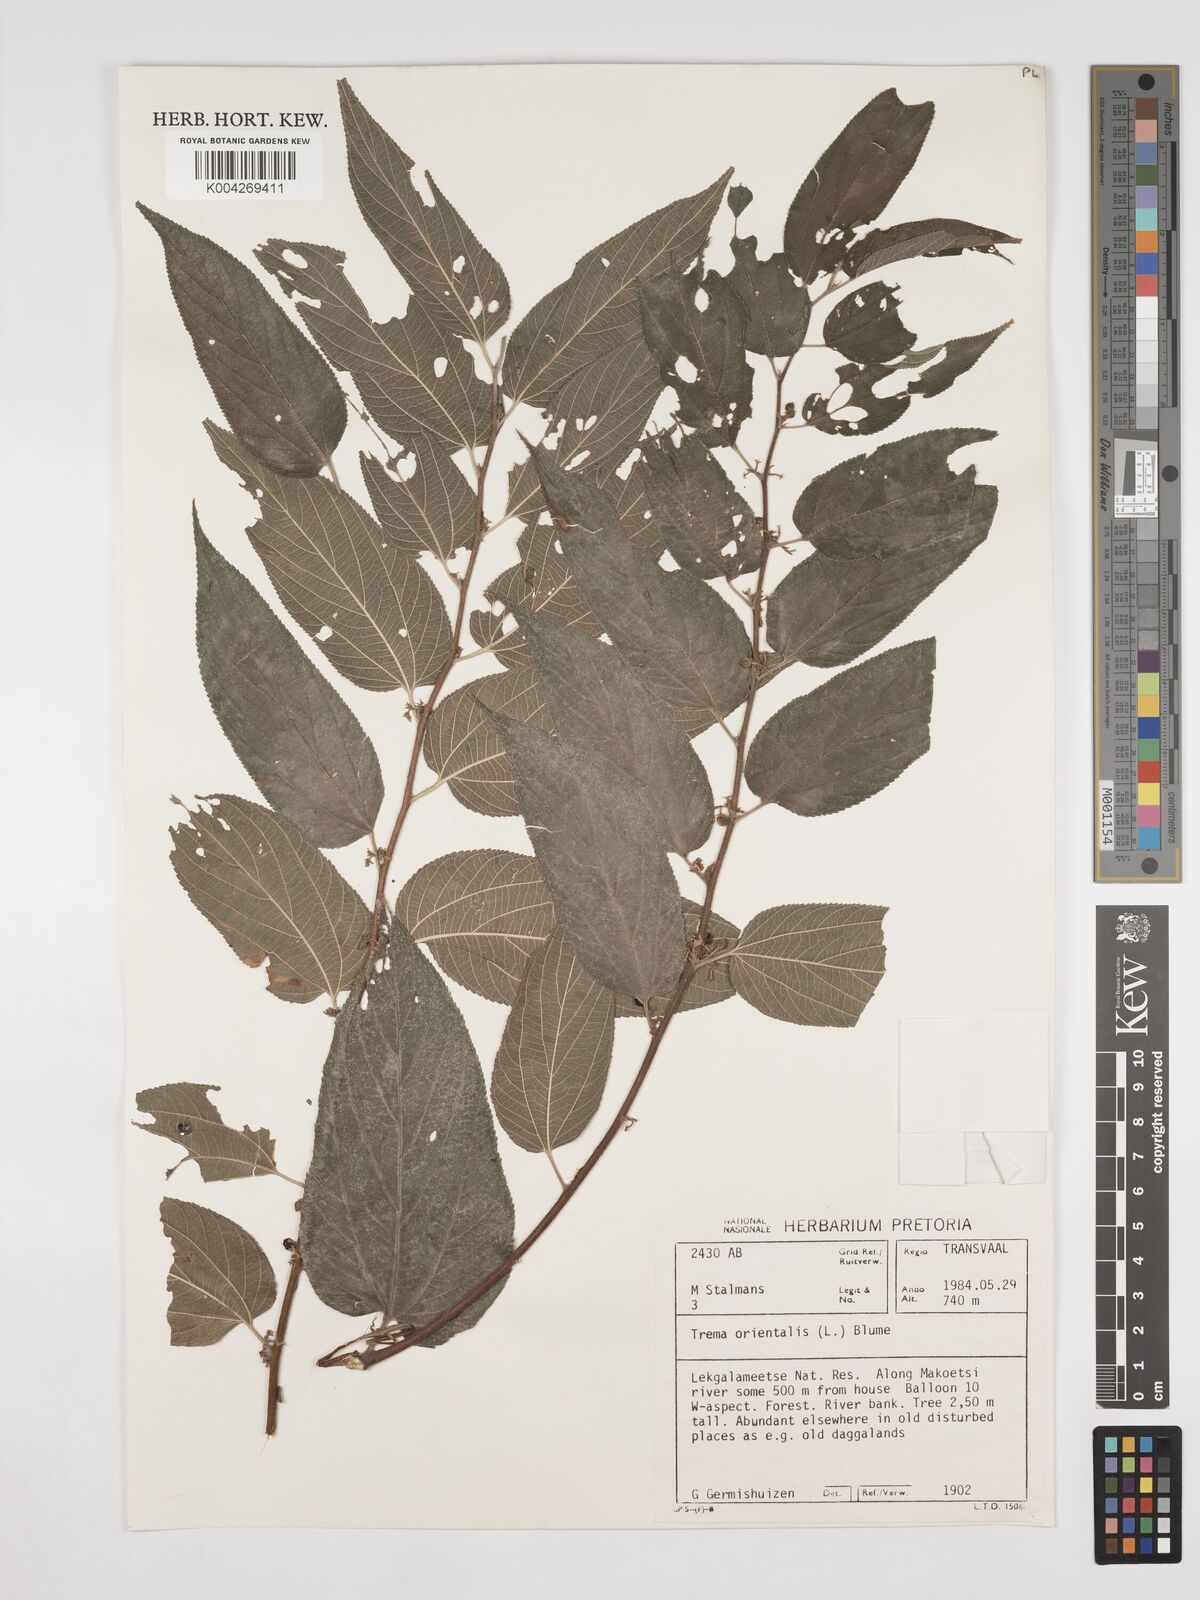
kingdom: Plantae
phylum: Tracheophyta
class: Magnoliopsida
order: Rosales
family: Cannabaceae
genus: Trema
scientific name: Trema orientale
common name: Indian charcoal tree
